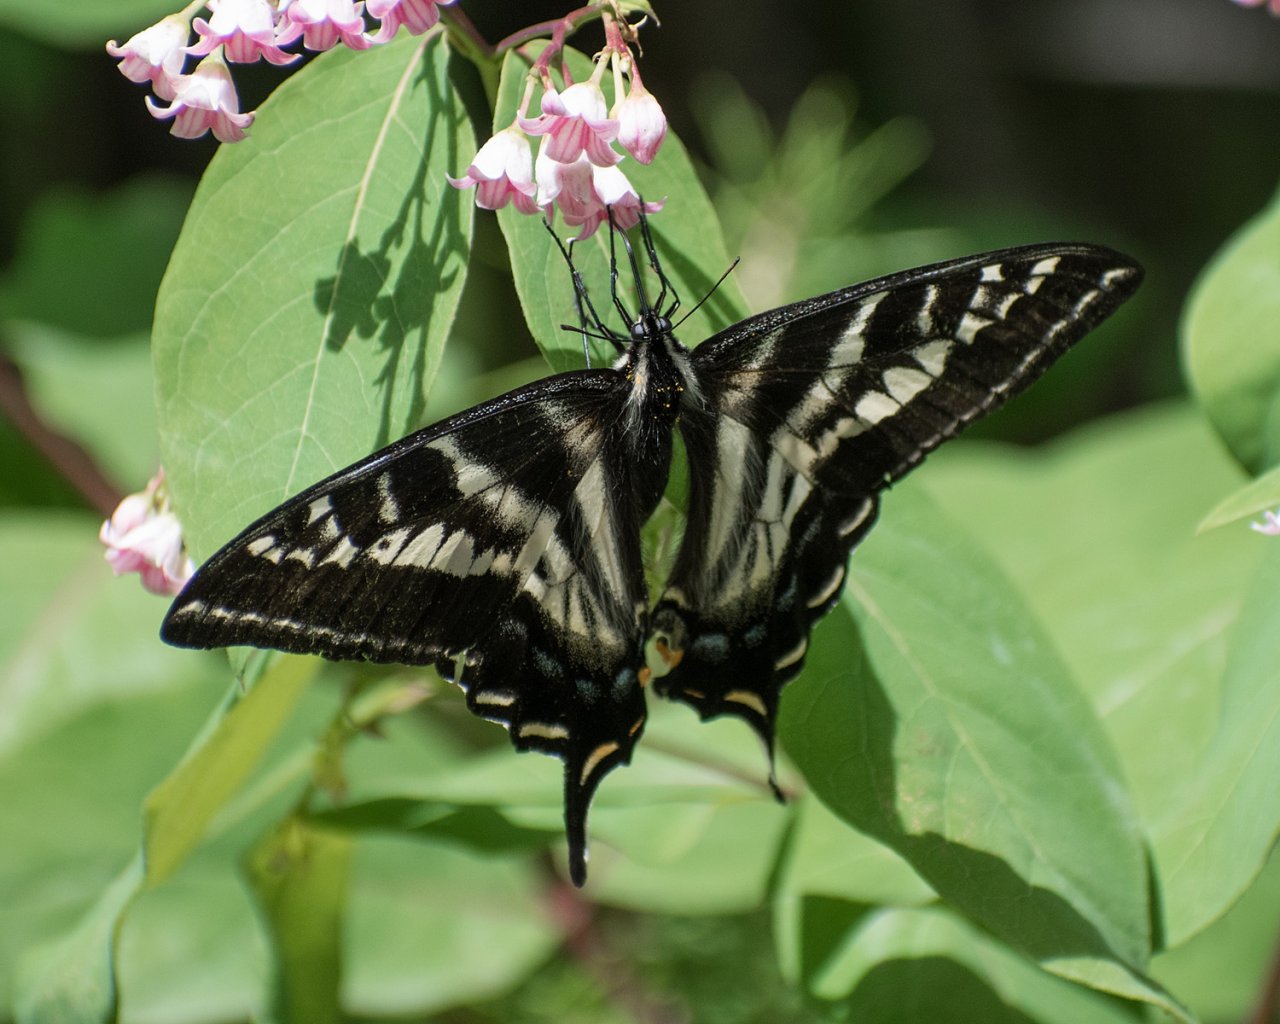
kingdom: Animalia
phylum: Arthropoda
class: Insecta
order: Lepidoptera
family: Papilionidae
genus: Pterourus
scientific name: Pterourus eurymedon
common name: Pale Swallowtail
